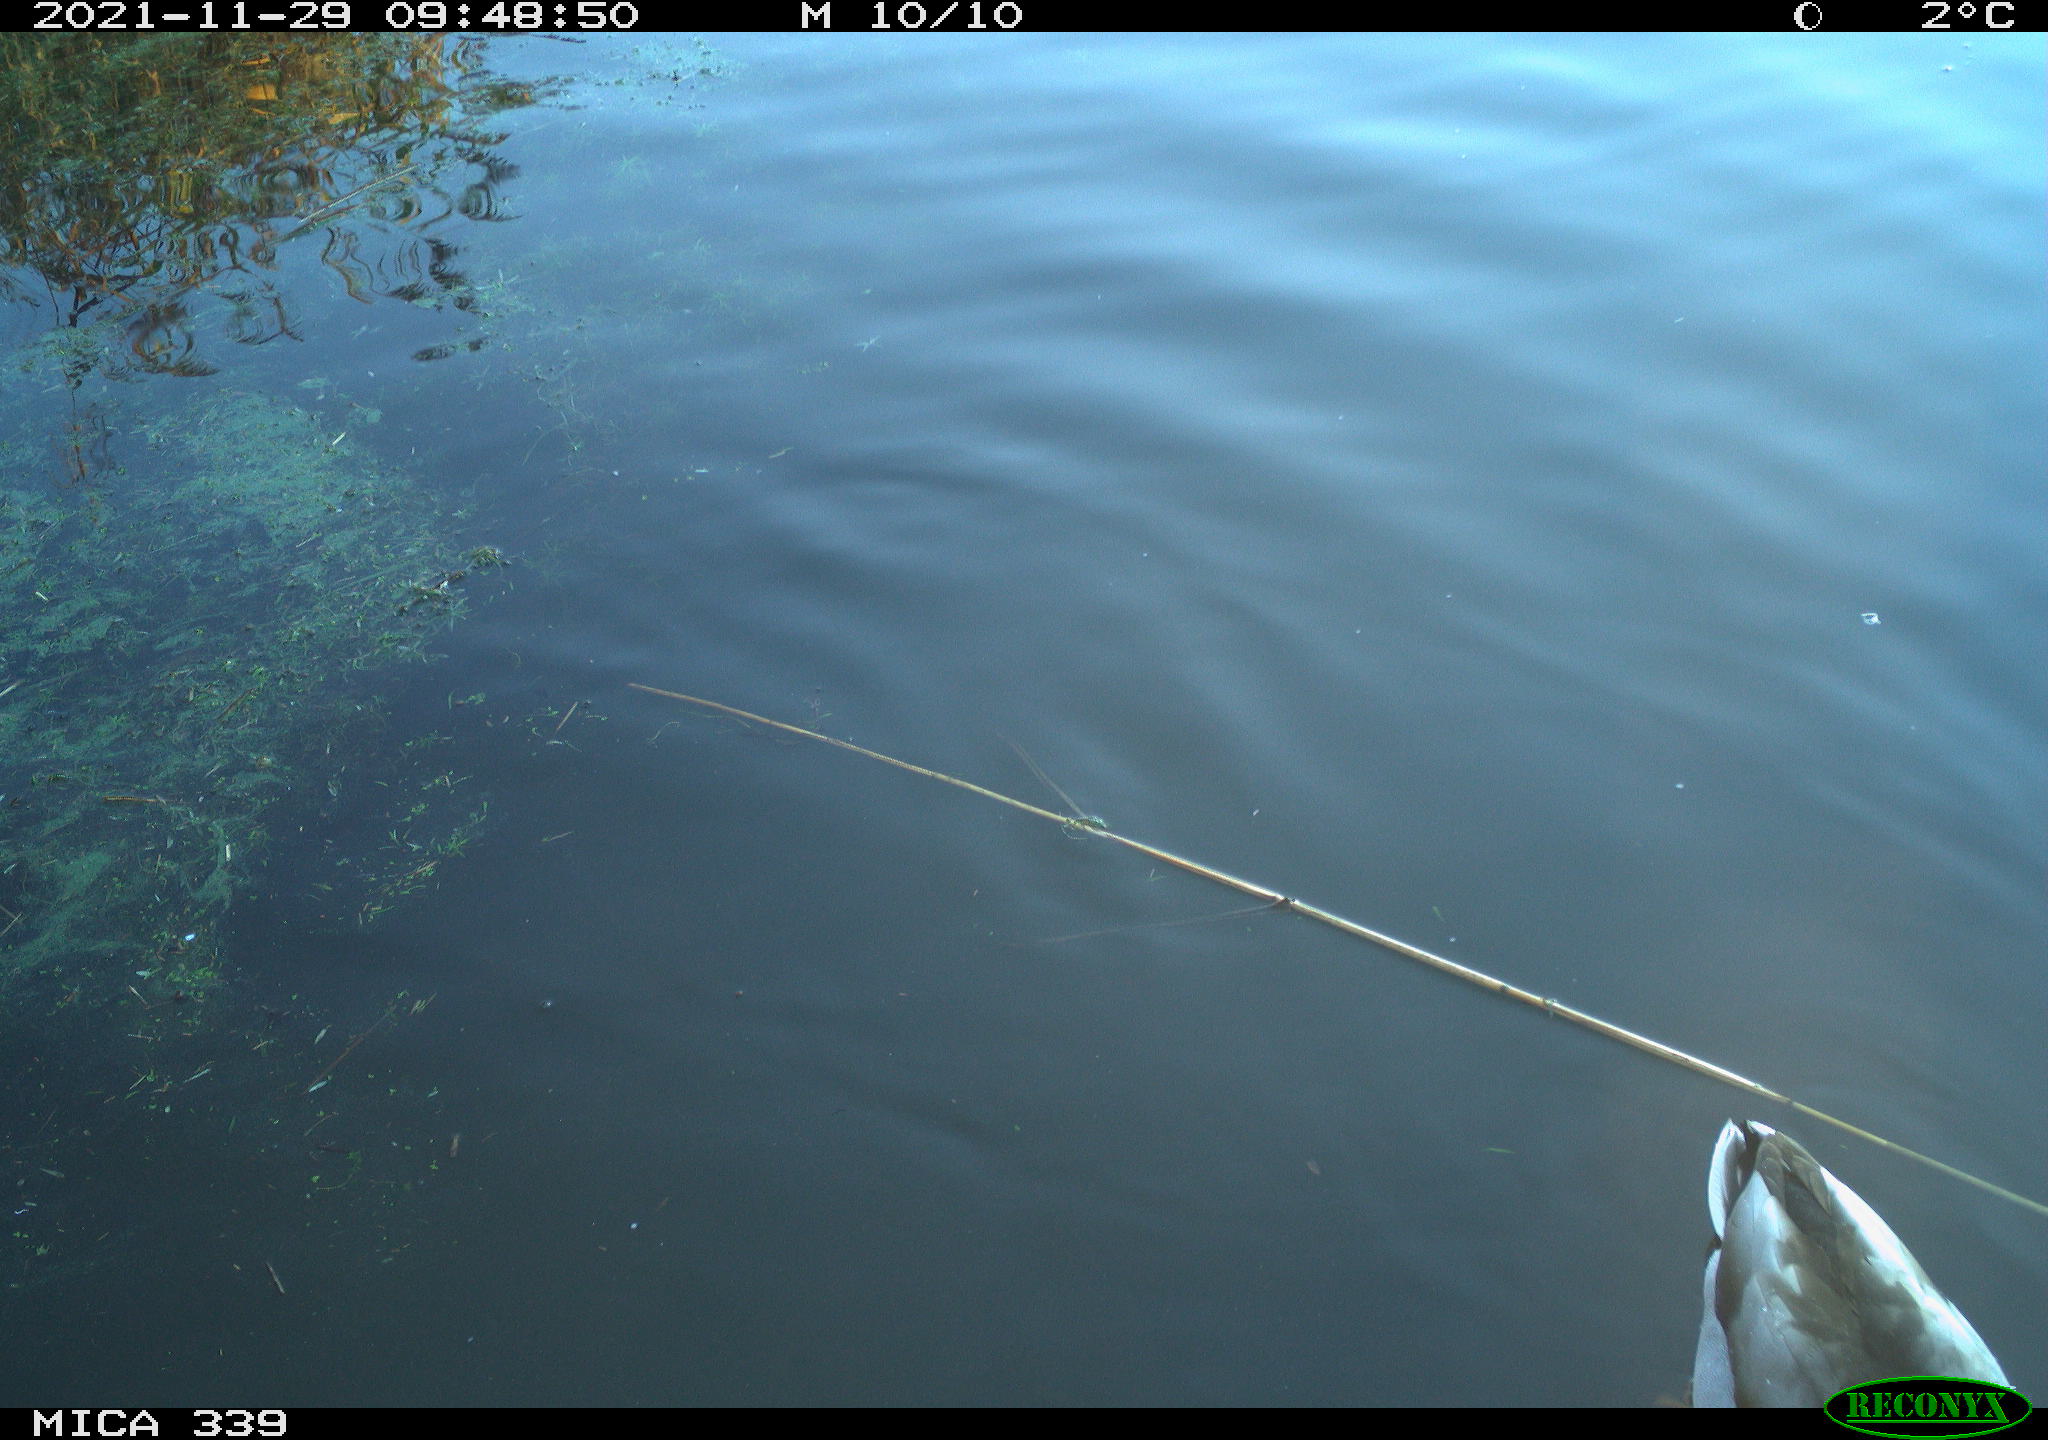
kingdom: Animalia
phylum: Chordata
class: Aves
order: Anseriformes
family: Anatidae
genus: Anas
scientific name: Anas platyrhynchos
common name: Mallard
